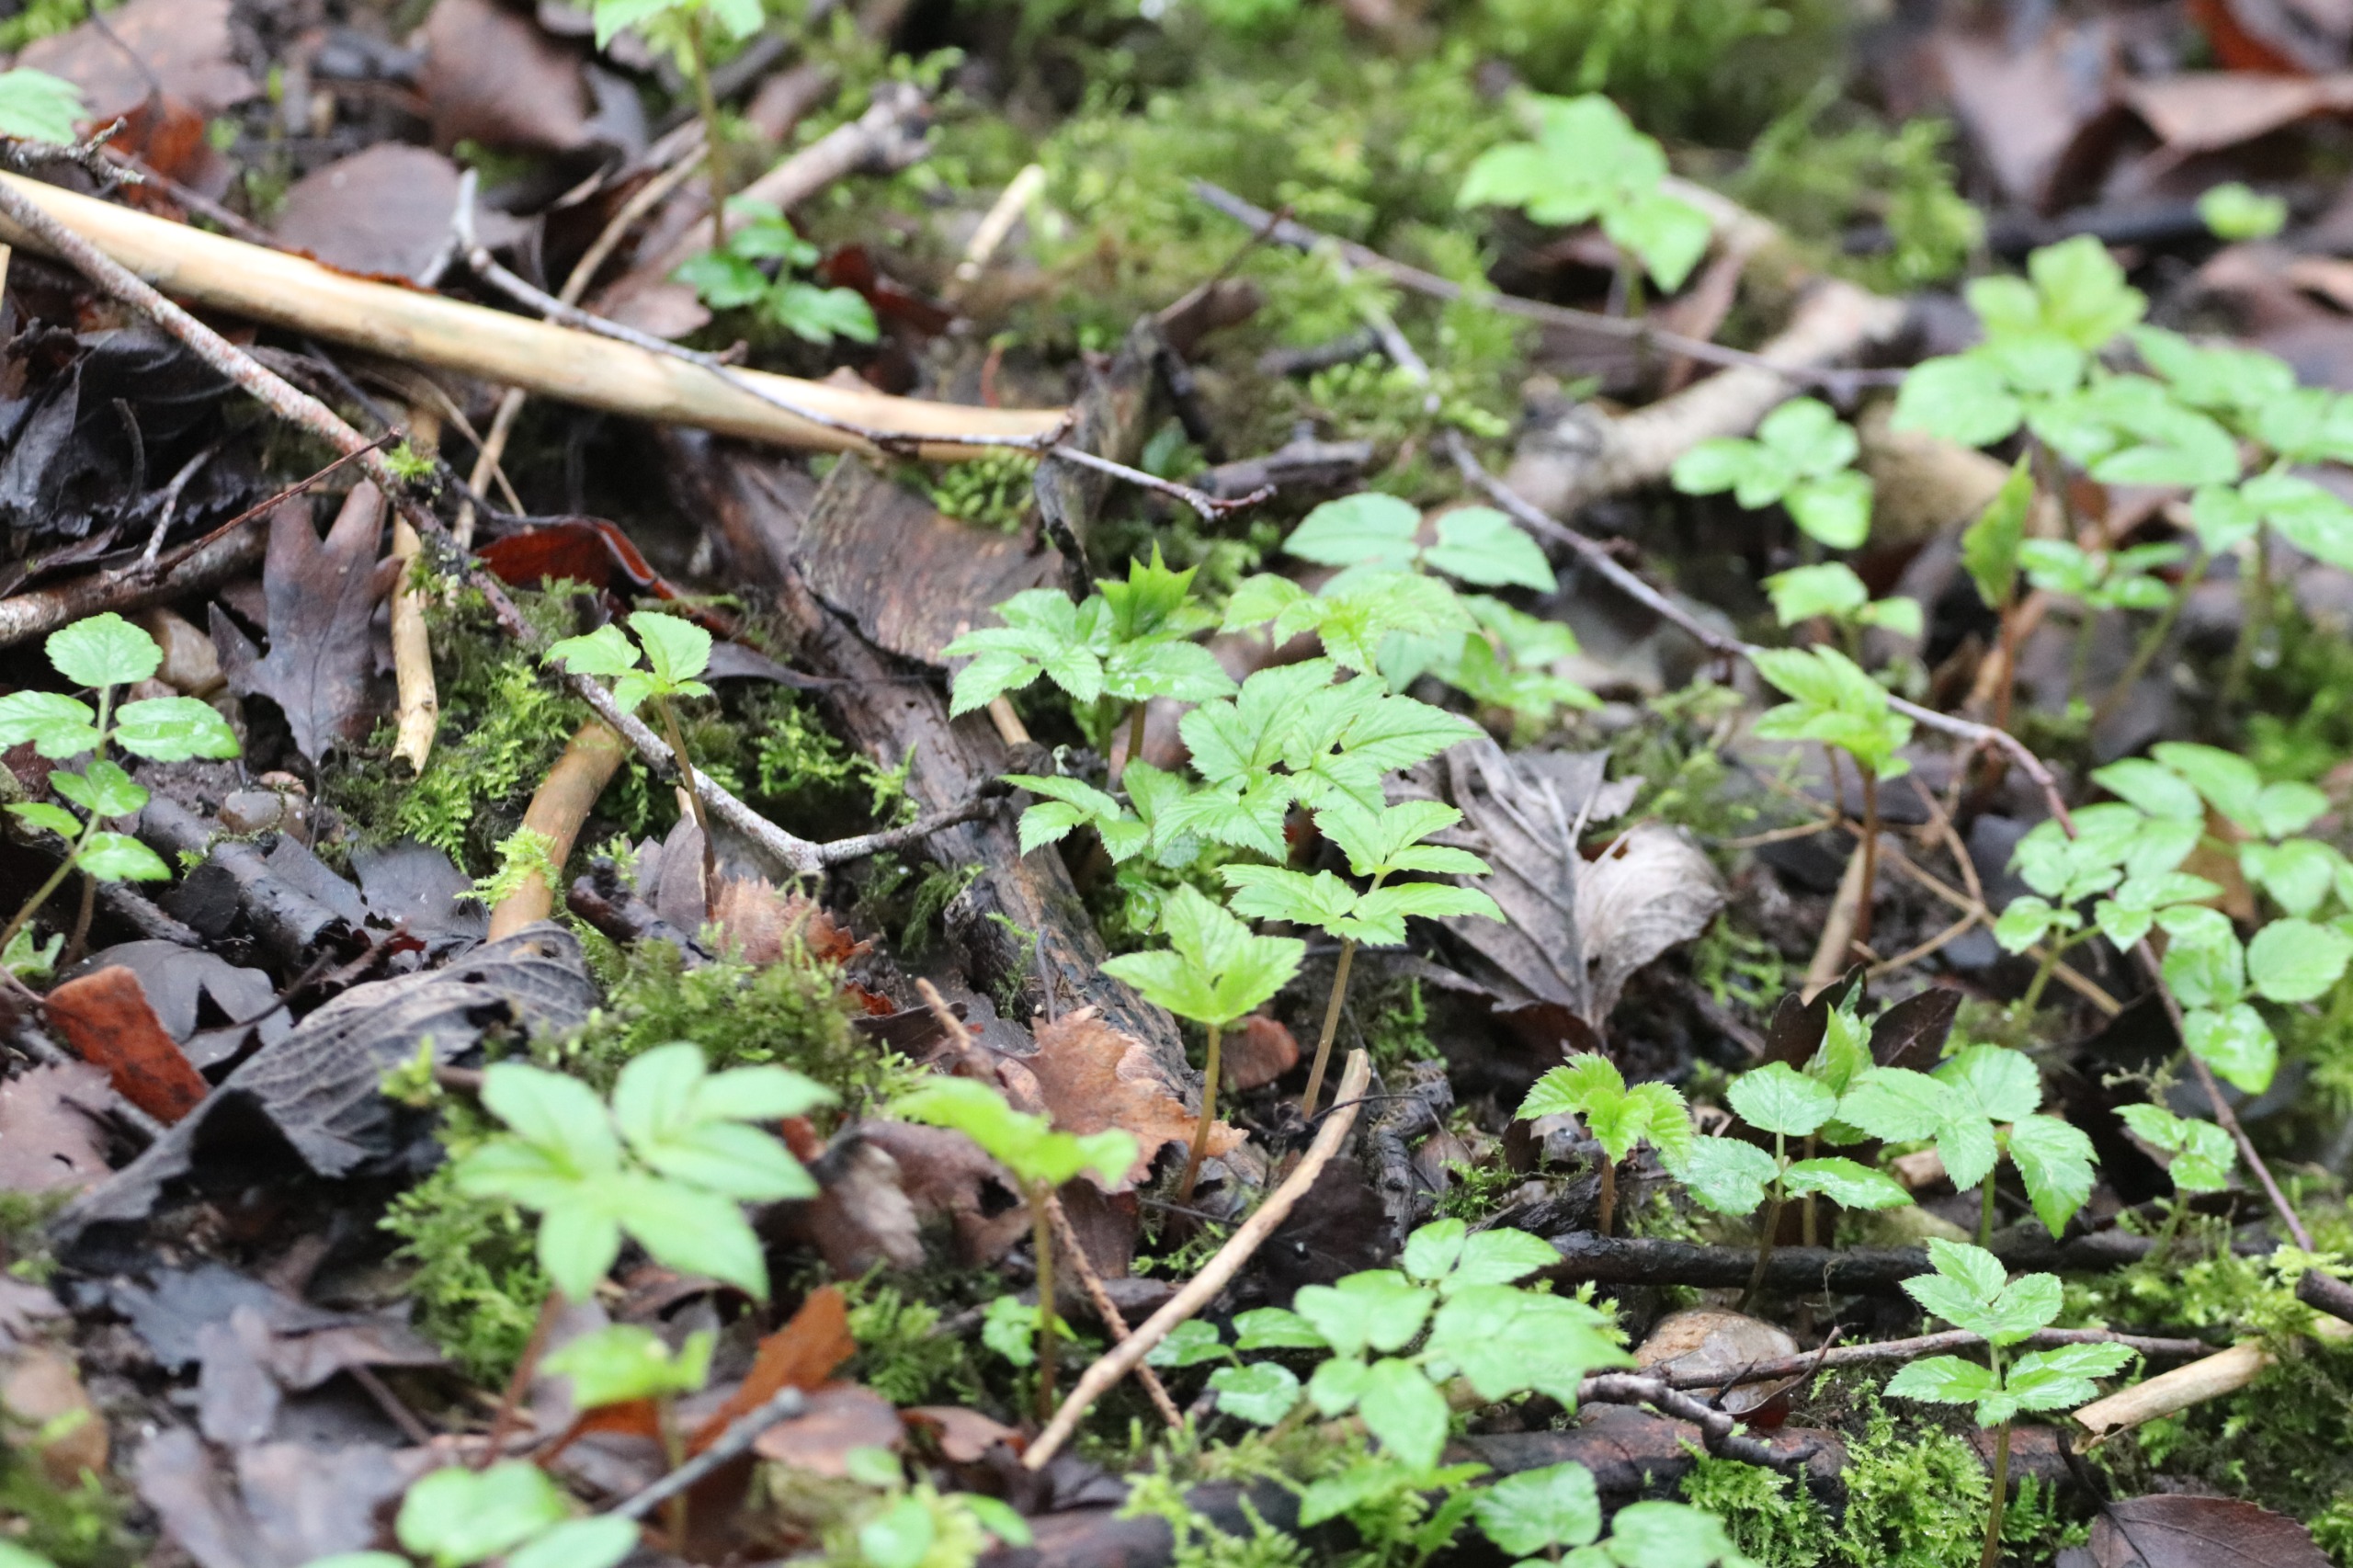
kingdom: Plantae
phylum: Tracheophyta
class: Magnoliopsida
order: Apiales
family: Apiaceae
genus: Aegopodium
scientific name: Aegopodium podagraria
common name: Skvalderkål
